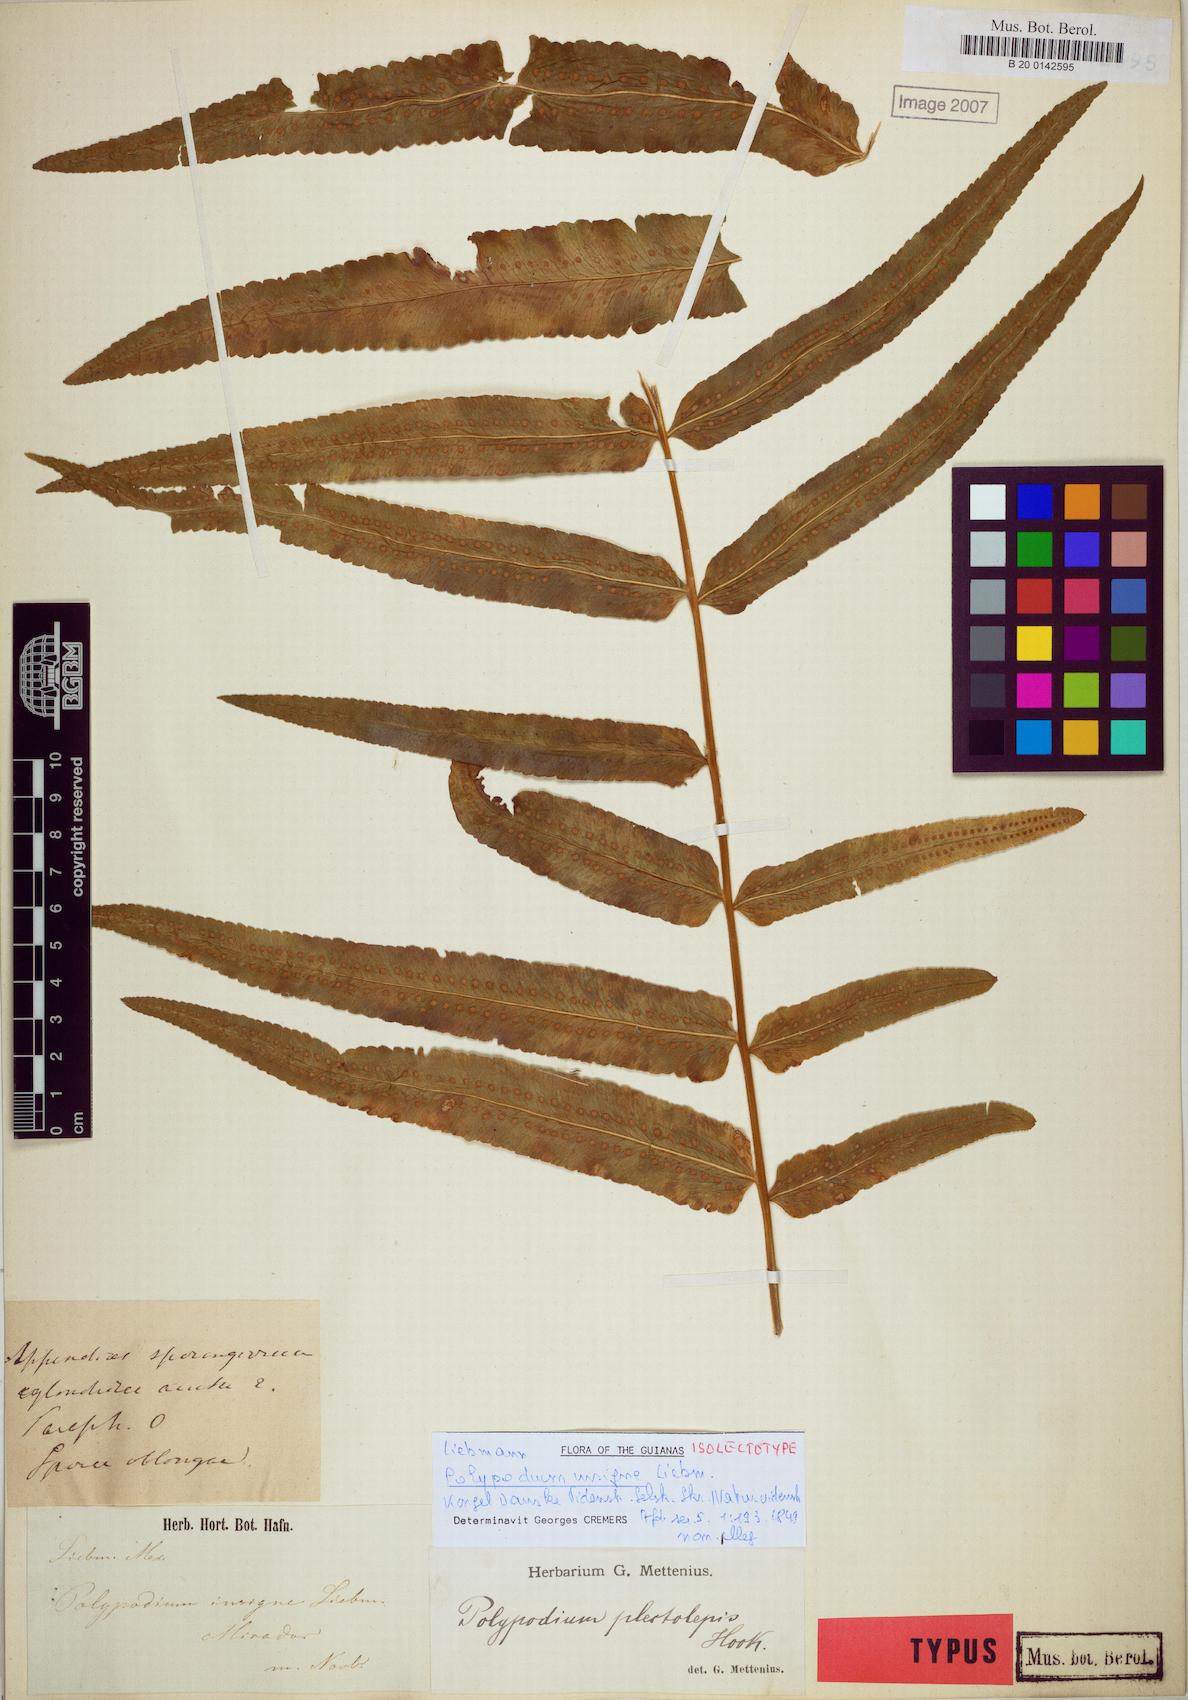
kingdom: Plantae
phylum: Tracheophyta
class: Polypodiopsida
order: Polypodiales
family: Polypodiaceae
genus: Polypodium
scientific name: Polypodium echinolepis
